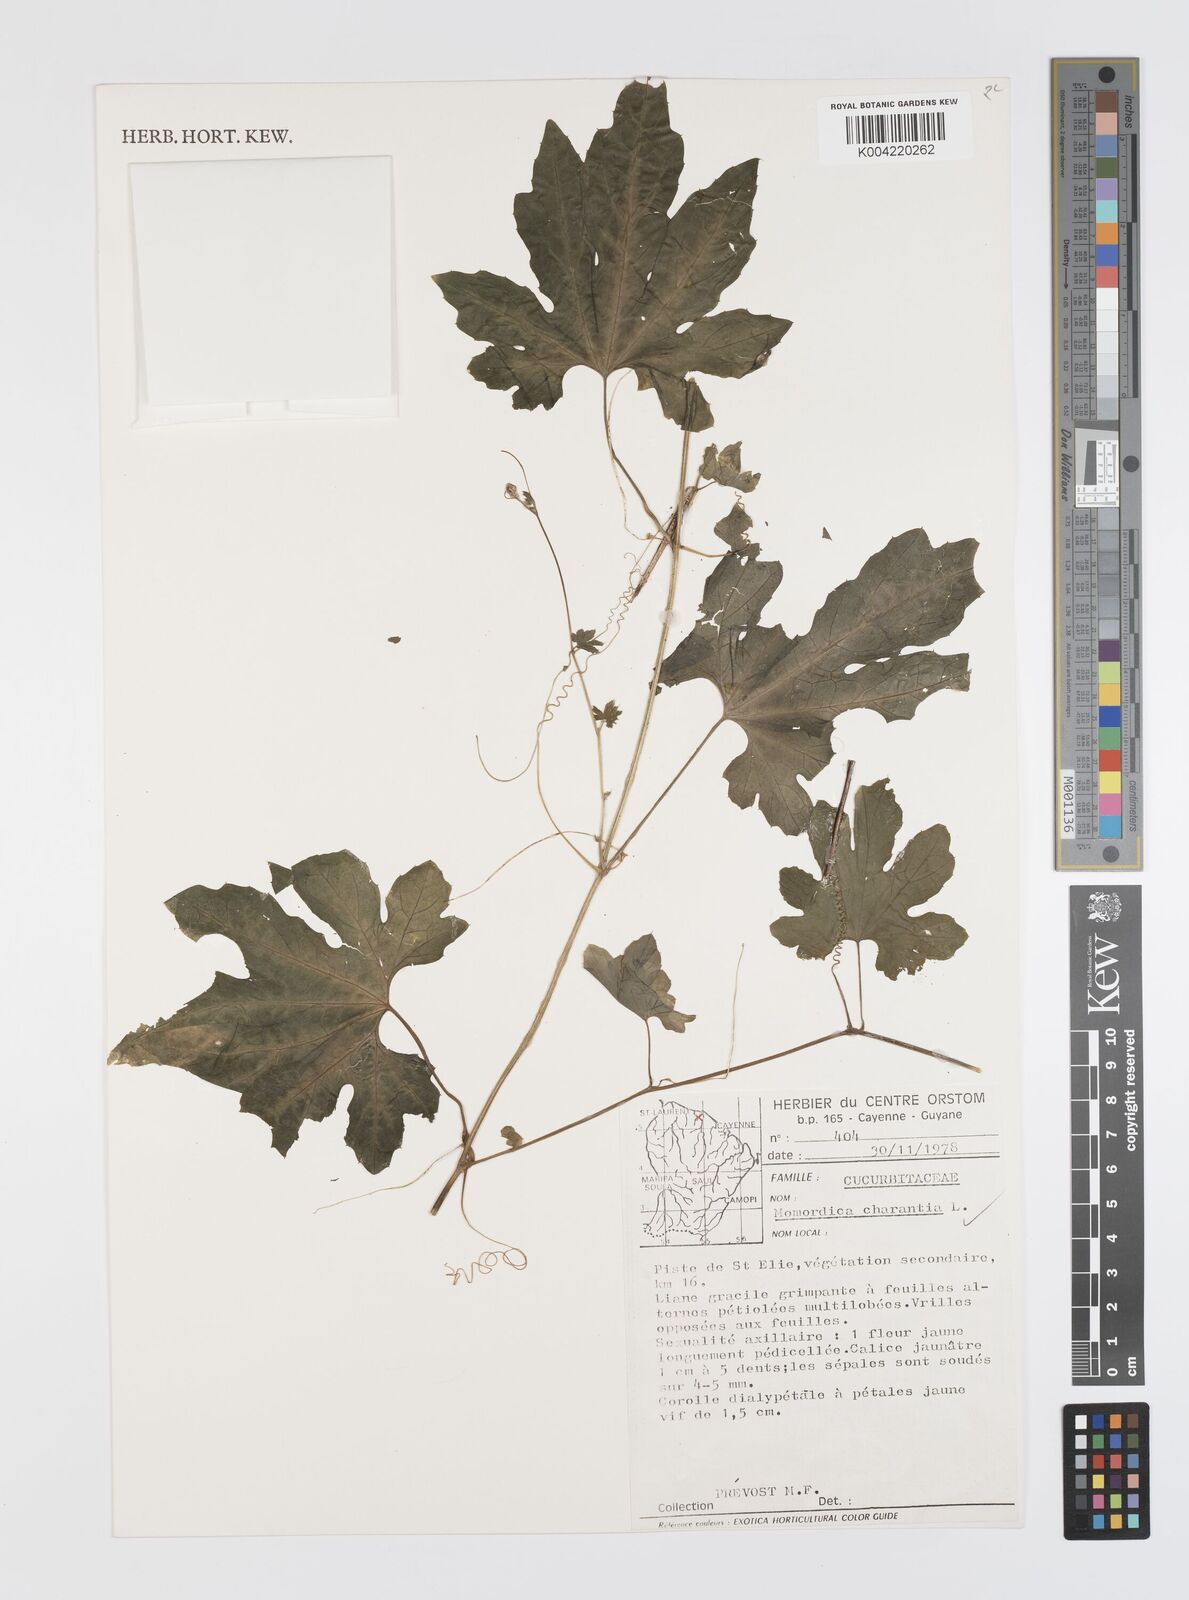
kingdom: Plantae
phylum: Tracheophyta
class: Magnoliopsida
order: Cucurbitales
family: Cucurbitaceae
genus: Momordica
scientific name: Momordica charantia
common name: Balsampear
